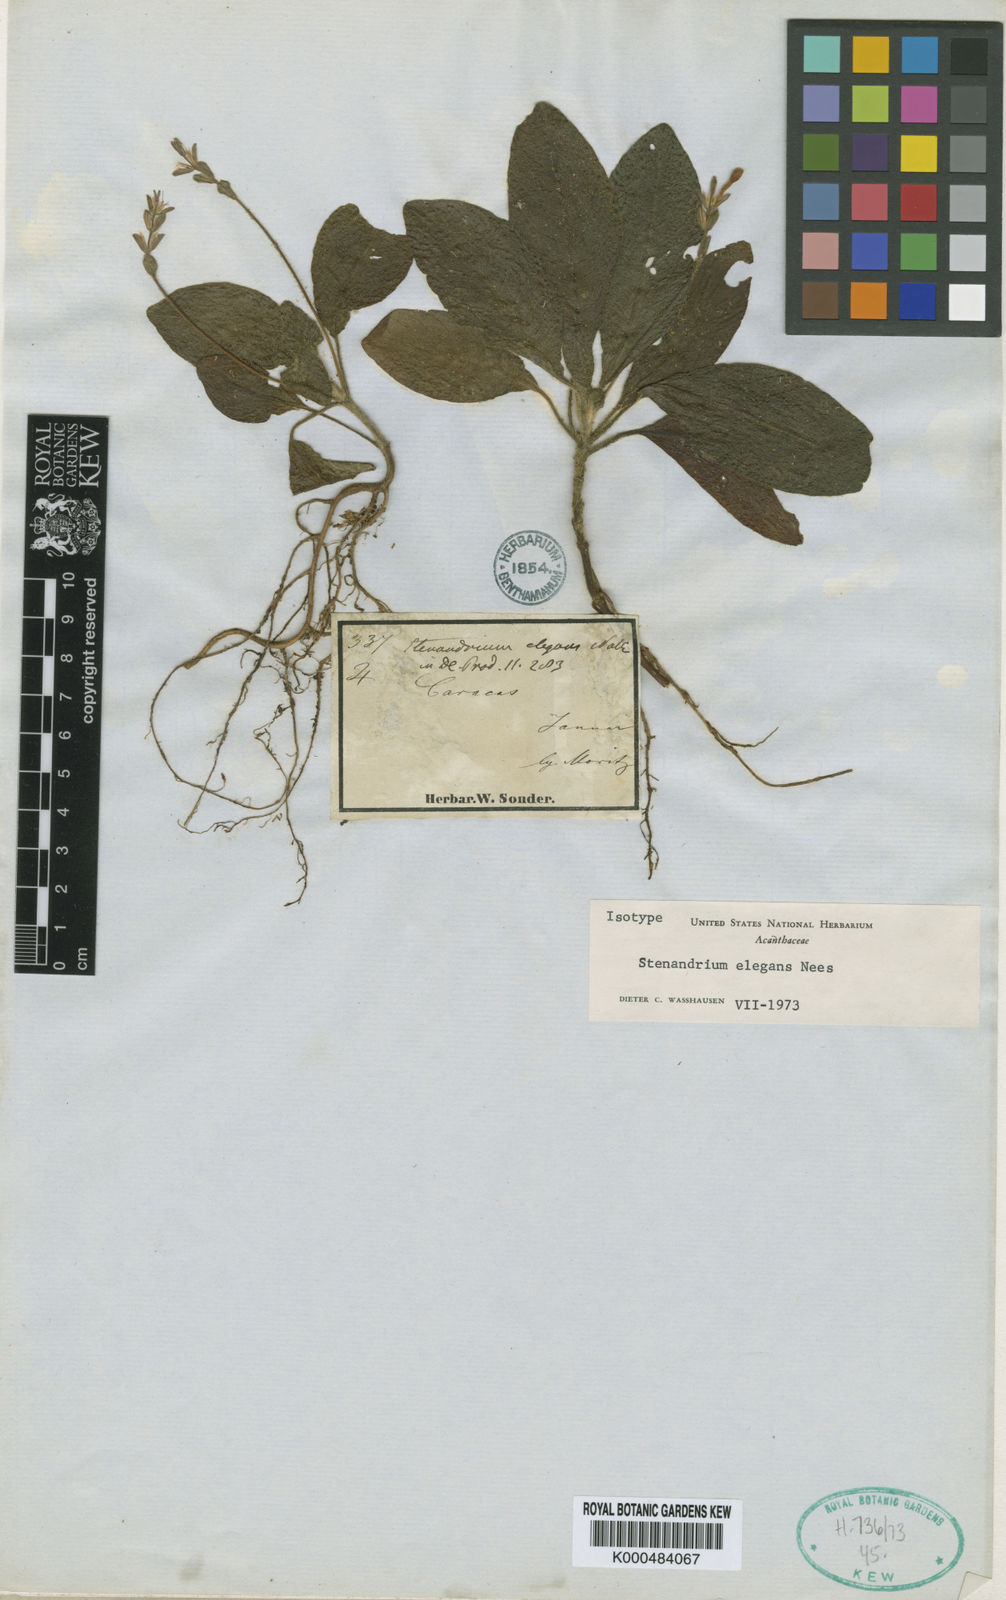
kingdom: Plantae
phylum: Tracheophyta
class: Magnoliopsida
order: Lamiales
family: Acanthaceae
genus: Stenandrium
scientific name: Stenandrium elegans
